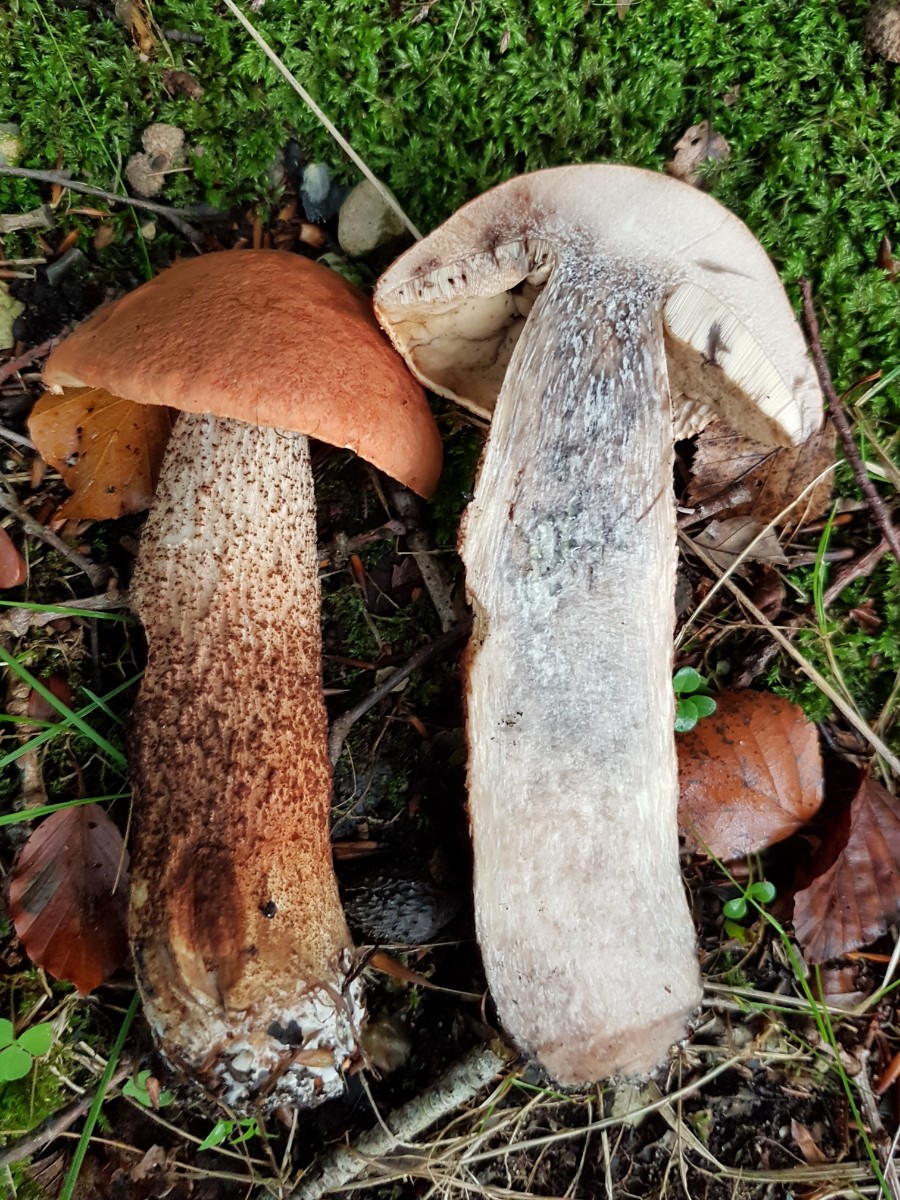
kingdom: Fungi
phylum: Basidiomycota
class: Agaricomycetes
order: Boletales
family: Boletaceae
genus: Leccinum
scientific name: Leccinum aurantiacum
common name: rustrød skælrørhat
